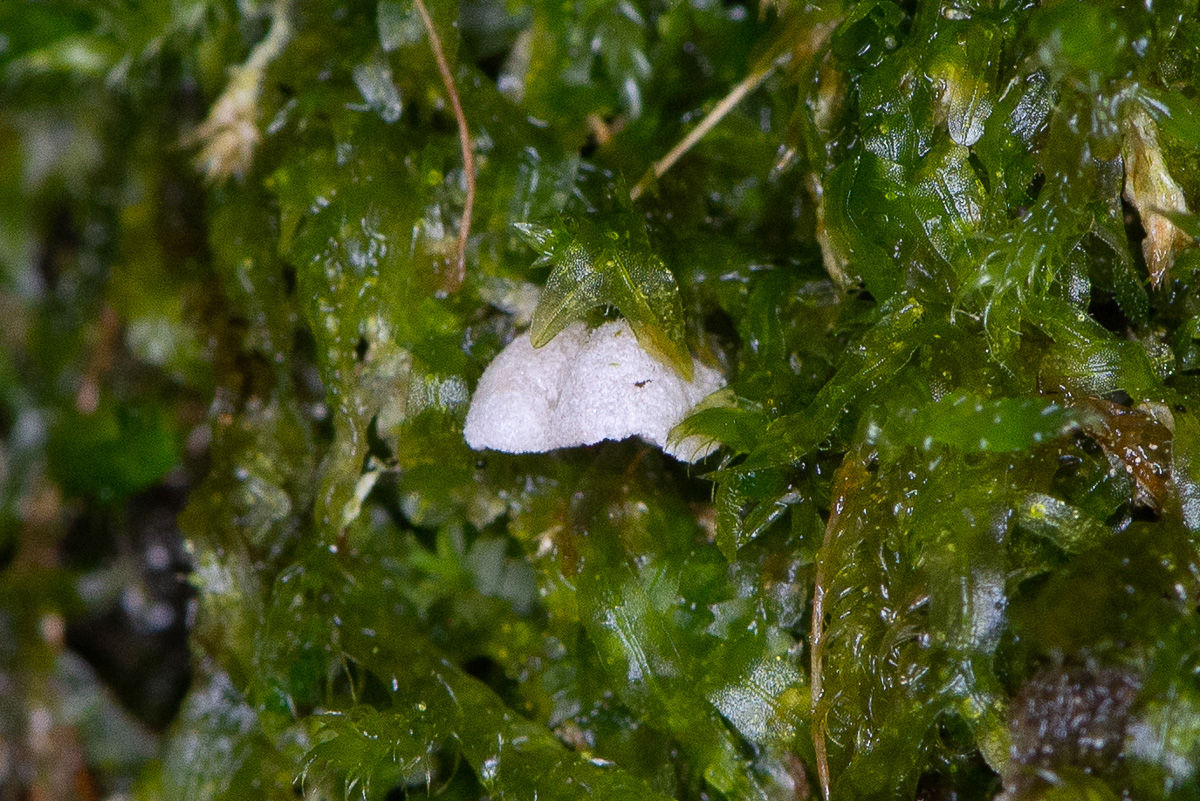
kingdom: Fungi
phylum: Basidiomycota
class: Agaricomycetes
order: Agaricales
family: Chromocyphellaceae
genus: Chromocyphella
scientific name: Chromocyphella muscicola
